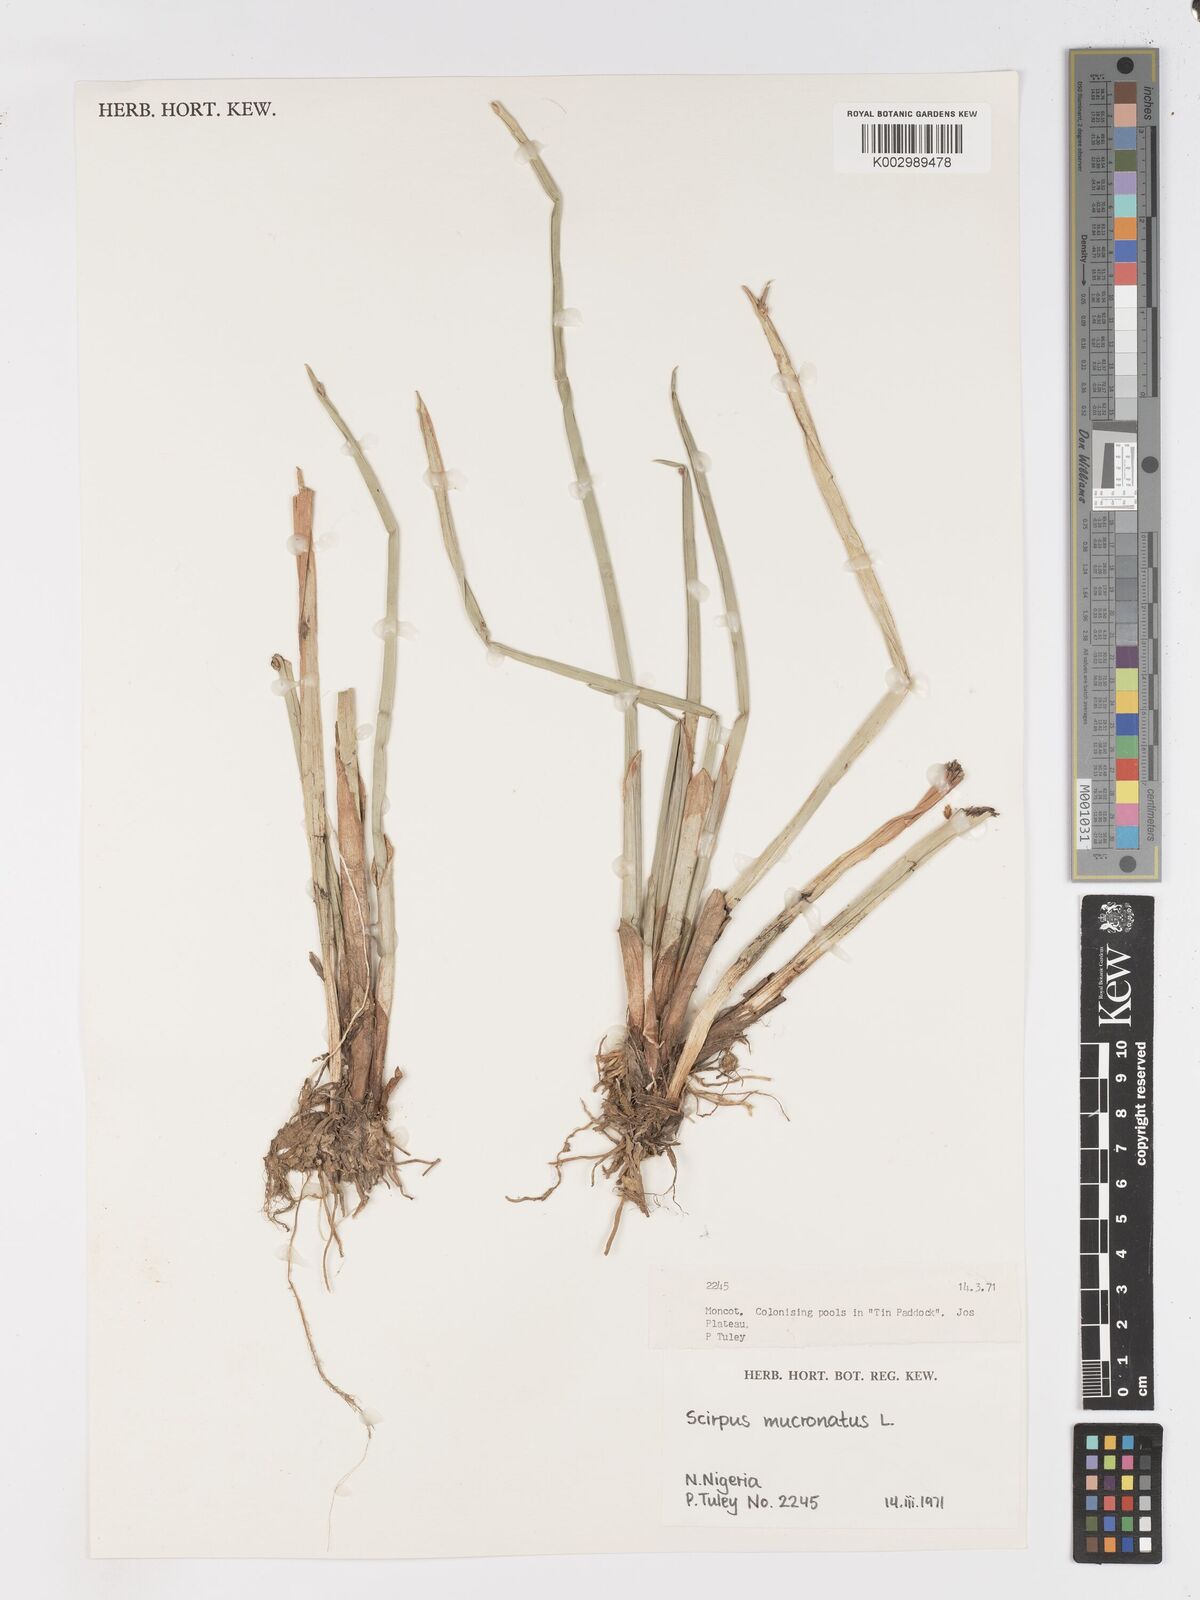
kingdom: Plantae
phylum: Tracheophyta
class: Liliopsida
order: Poales
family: Cyperaceae
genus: Schoenoplectiella
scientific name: Schoenoplectiella mucronata
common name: Bog bulrush
